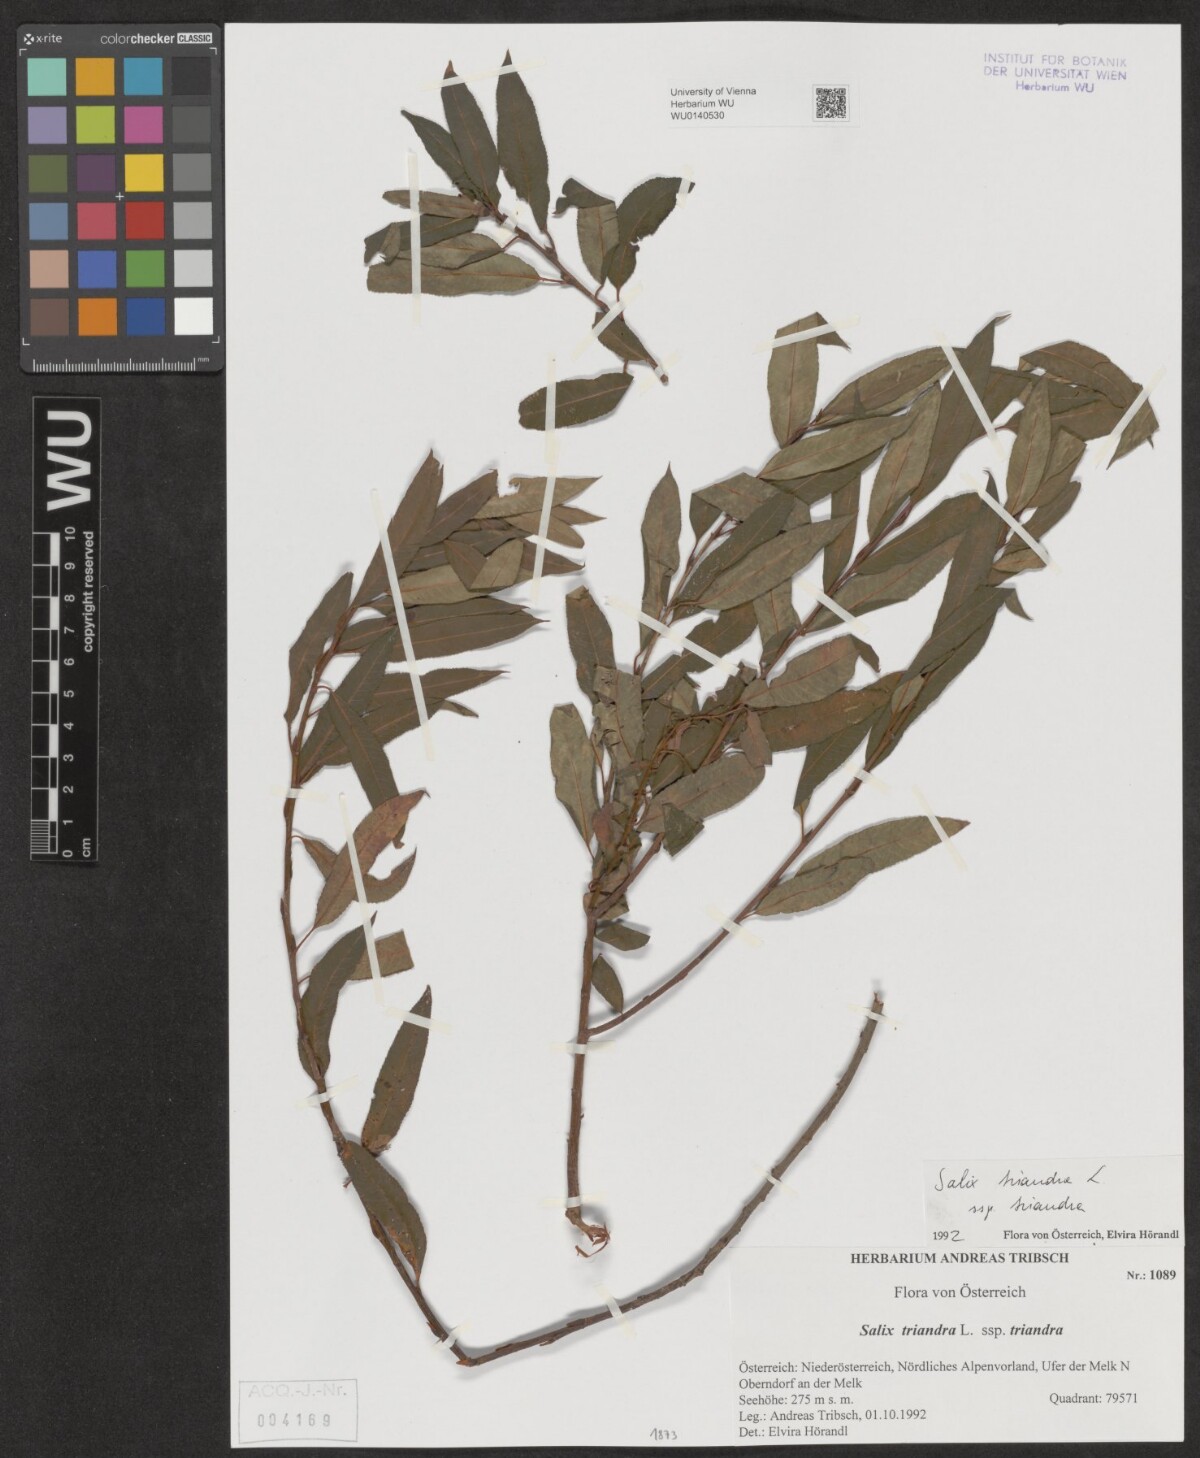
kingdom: Plantae
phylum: Tracheophyta
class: Magnoliopsida
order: Malpighiales
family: Salicaceae
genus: Salix
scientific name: Salix triandra
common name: Almond willow
